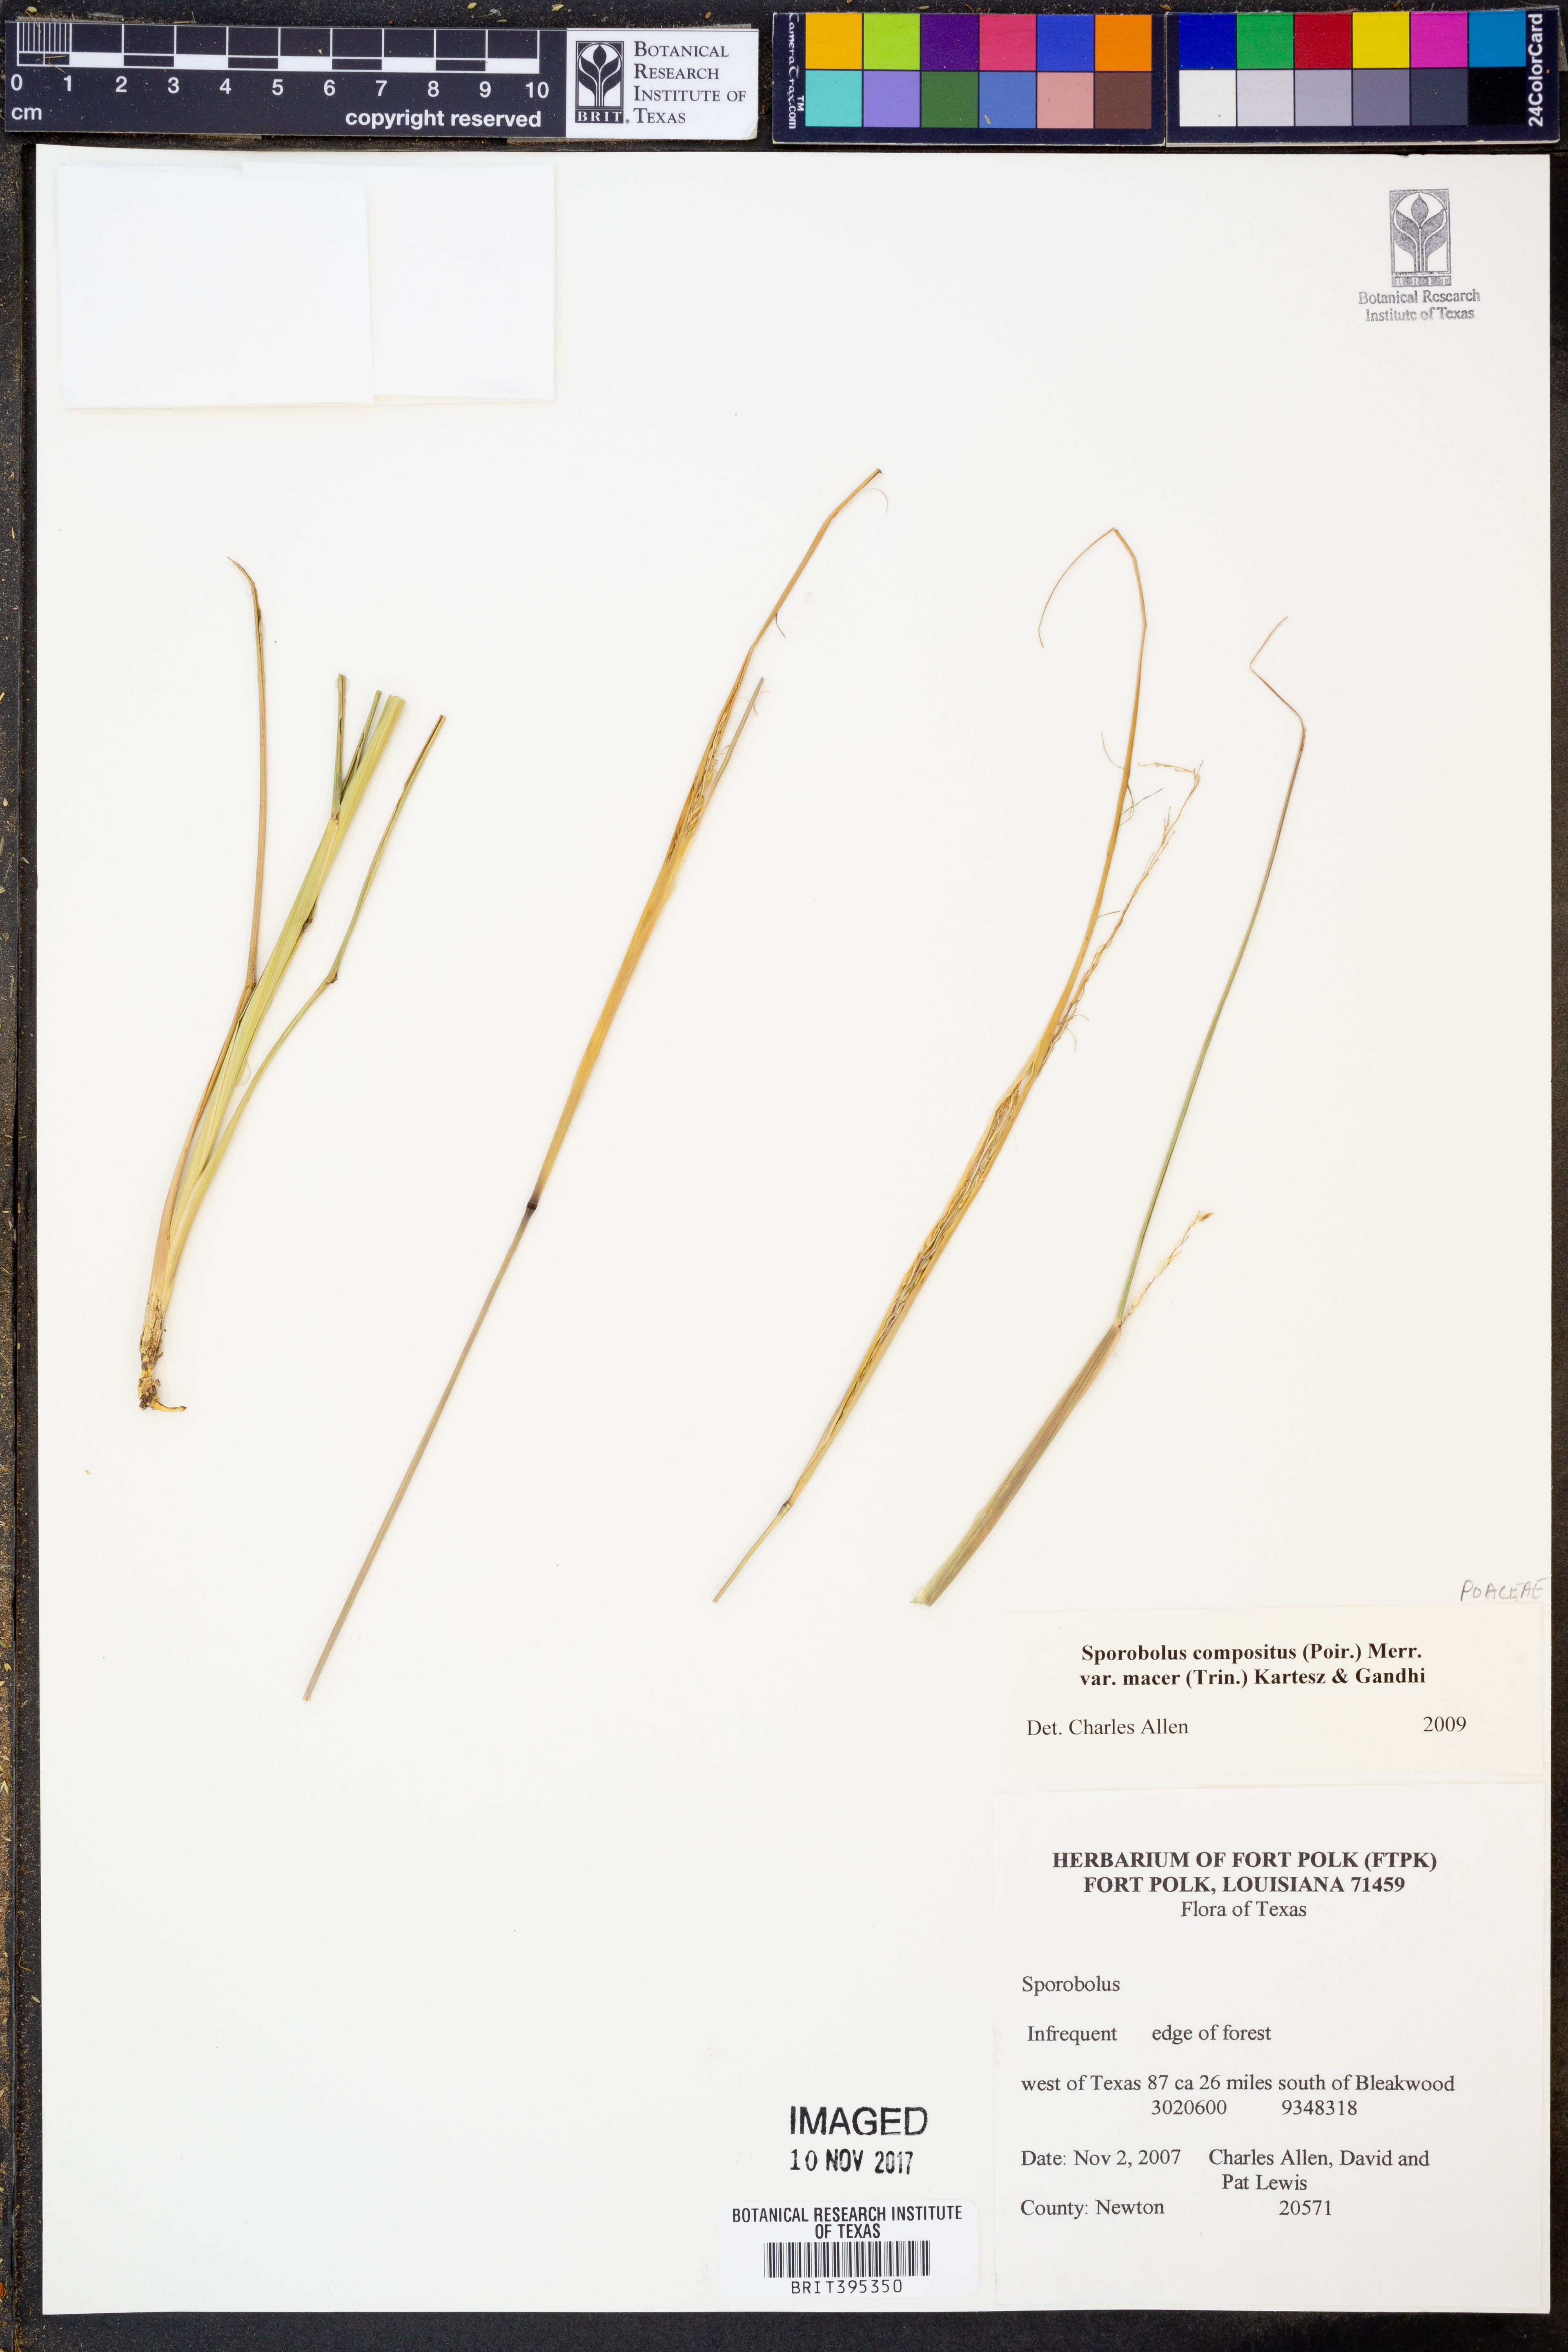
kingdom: Plantae
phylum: Tracheophyta
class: Liliopsida
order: Poales
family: Poaceae
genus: Sporobolus
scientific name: Sporobolus compositus
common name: Rough dropseed
